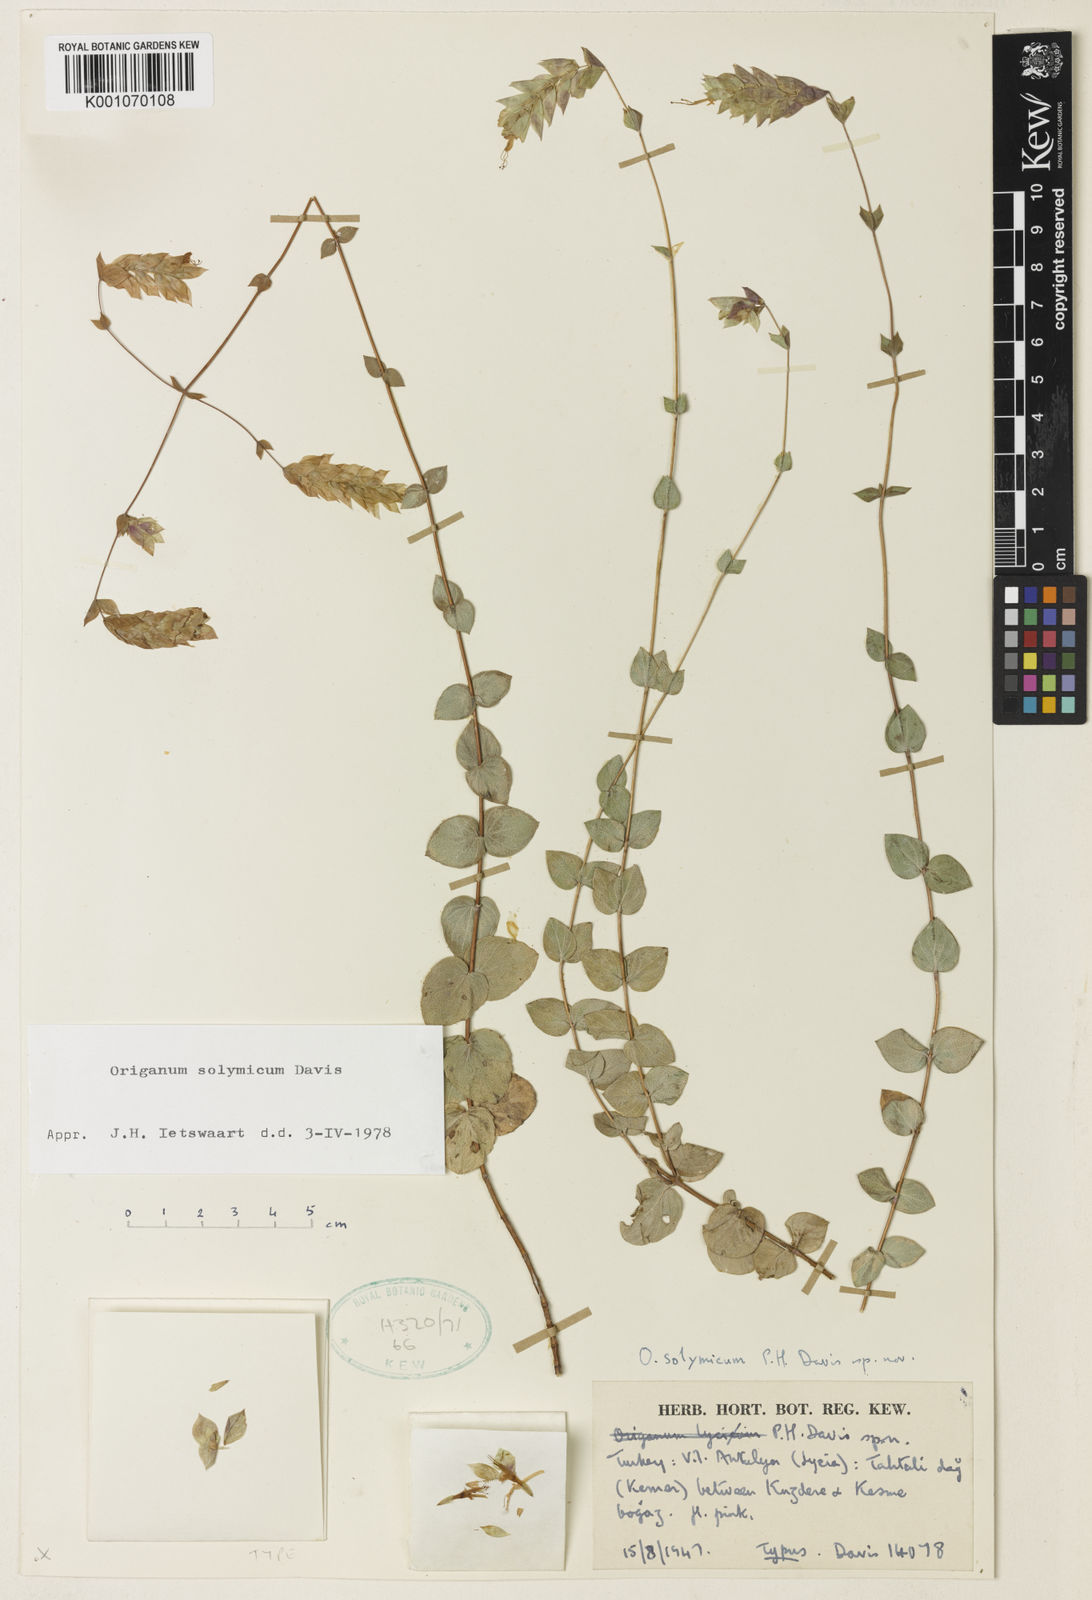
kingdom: Plantae
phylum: Tracheophyta
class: Magnoliopsida
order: Lamiales
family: Lamiaceae
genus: Origanum
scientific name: Origanum solymicum
